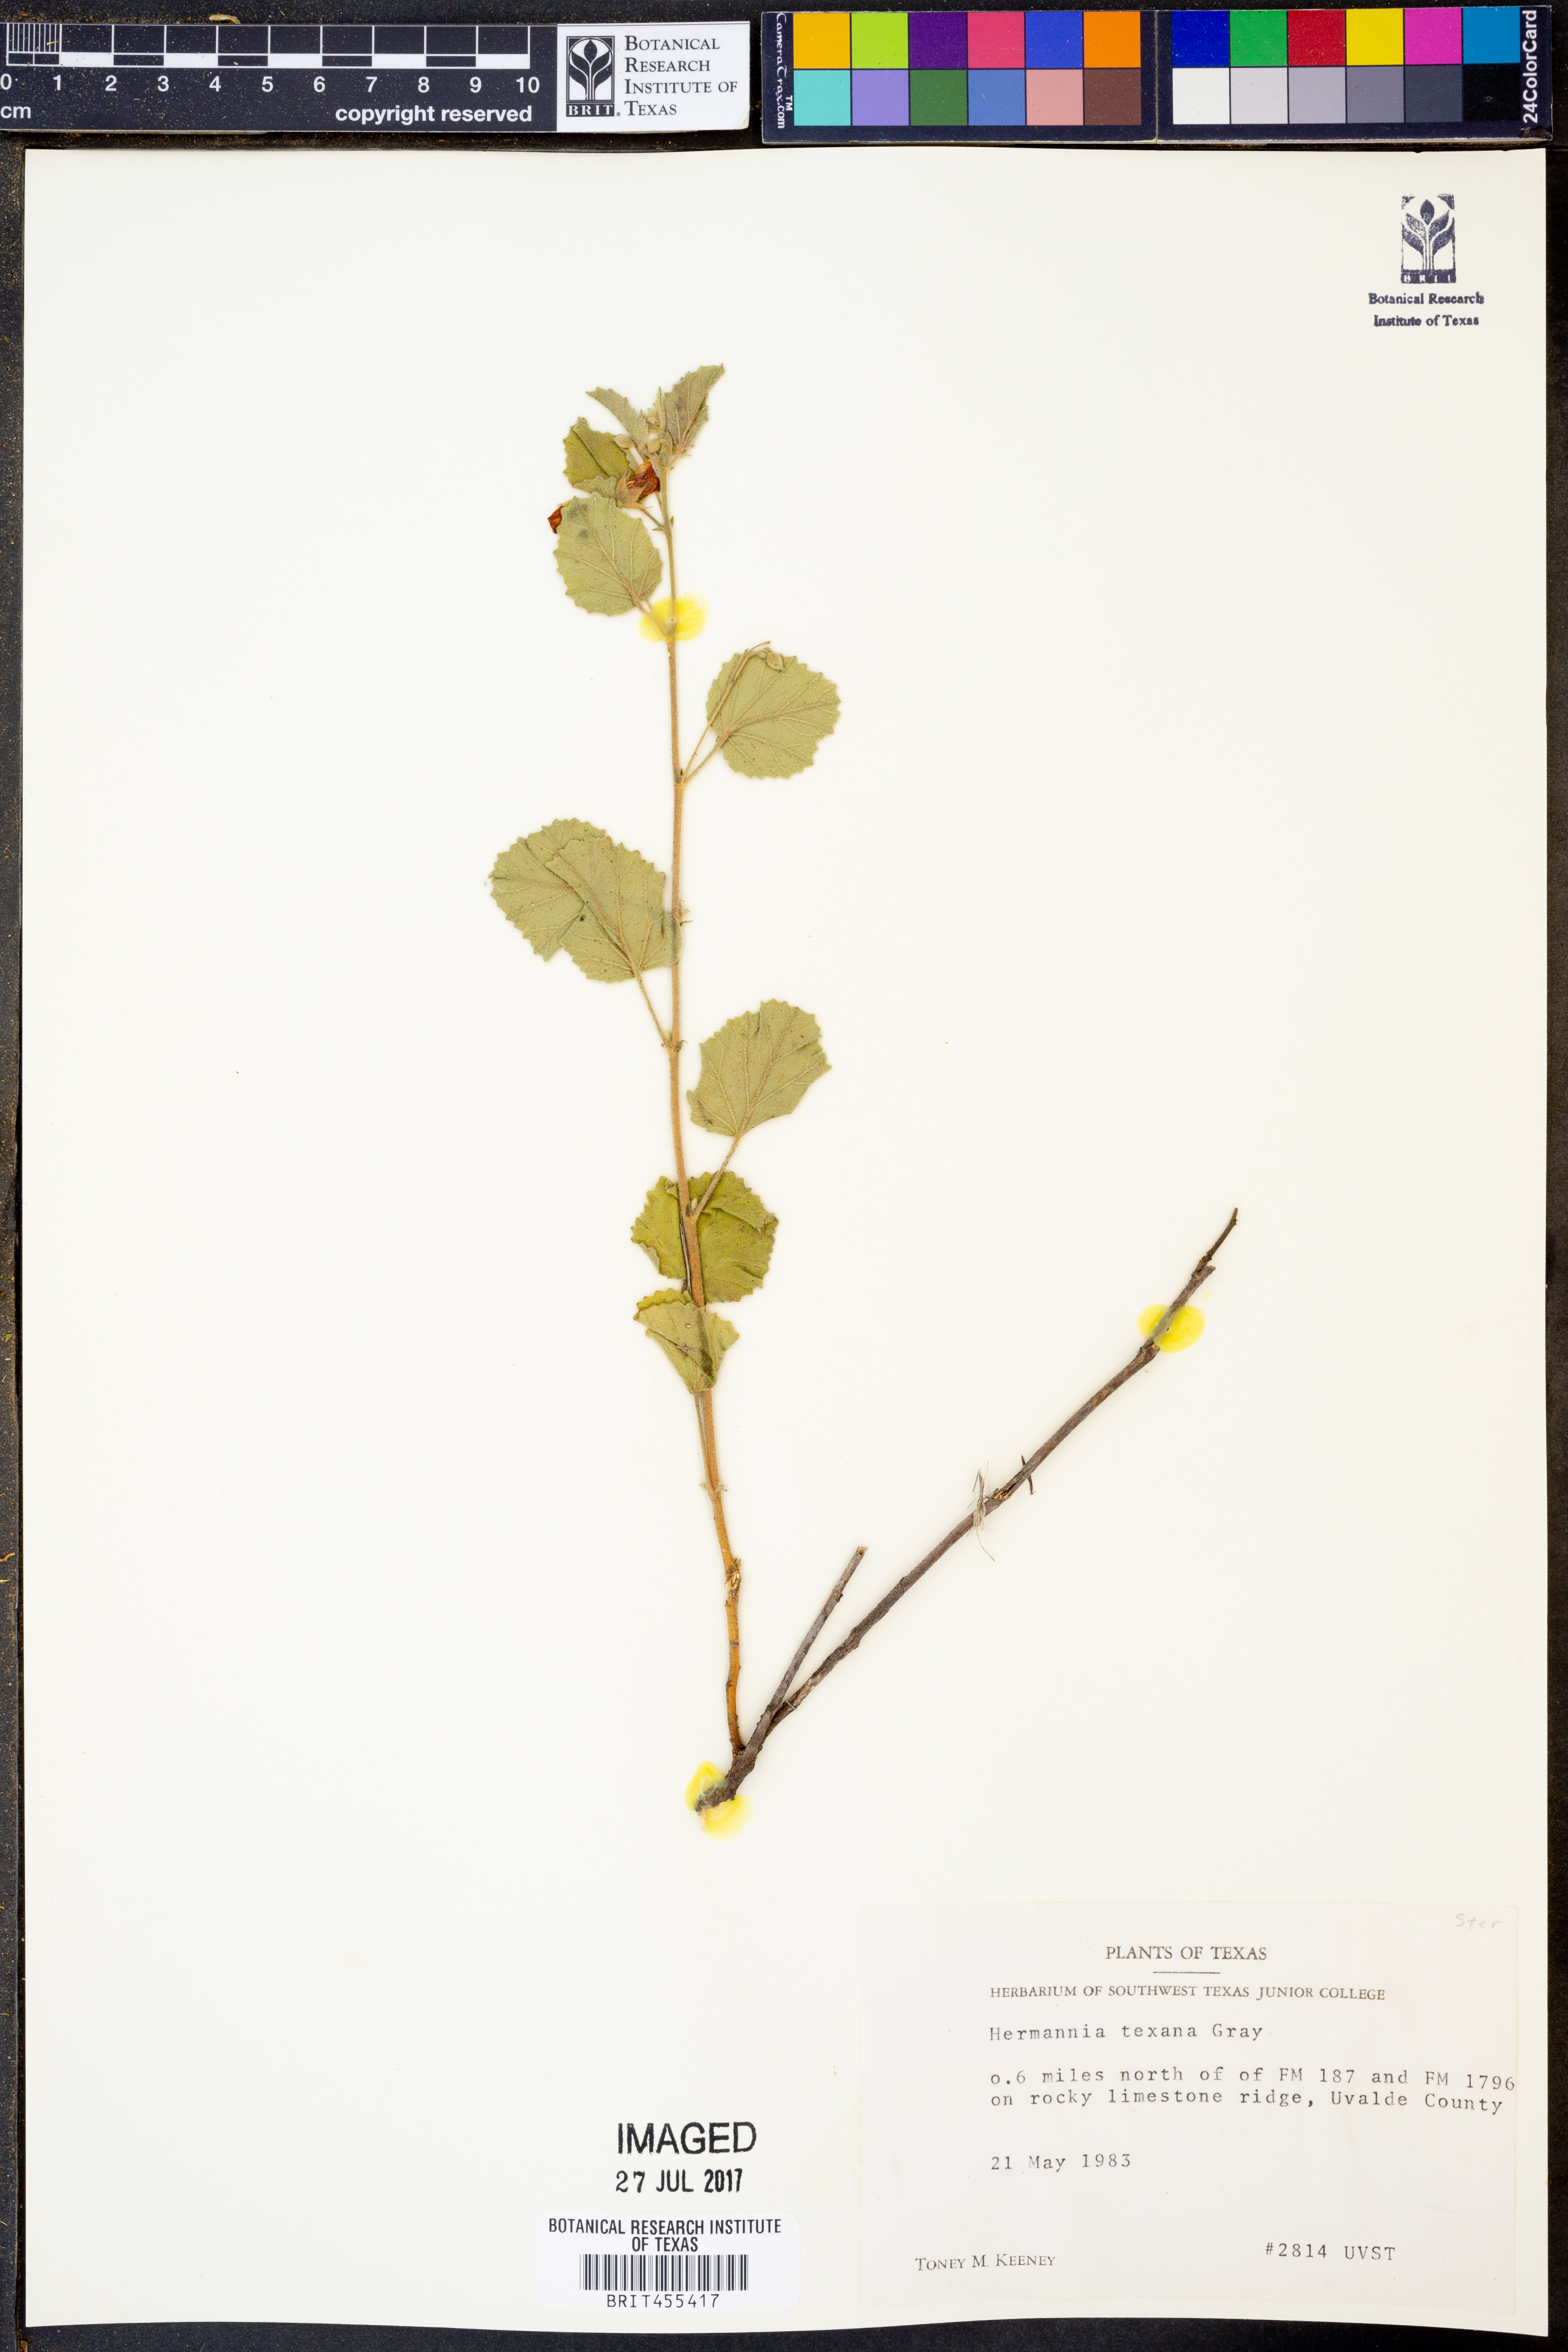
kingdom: Plantae
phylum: Tracheophyta
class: Magnoliopsida
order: Malvales
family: Malvaceae
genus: Hermannia
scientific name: Hermannia texana
